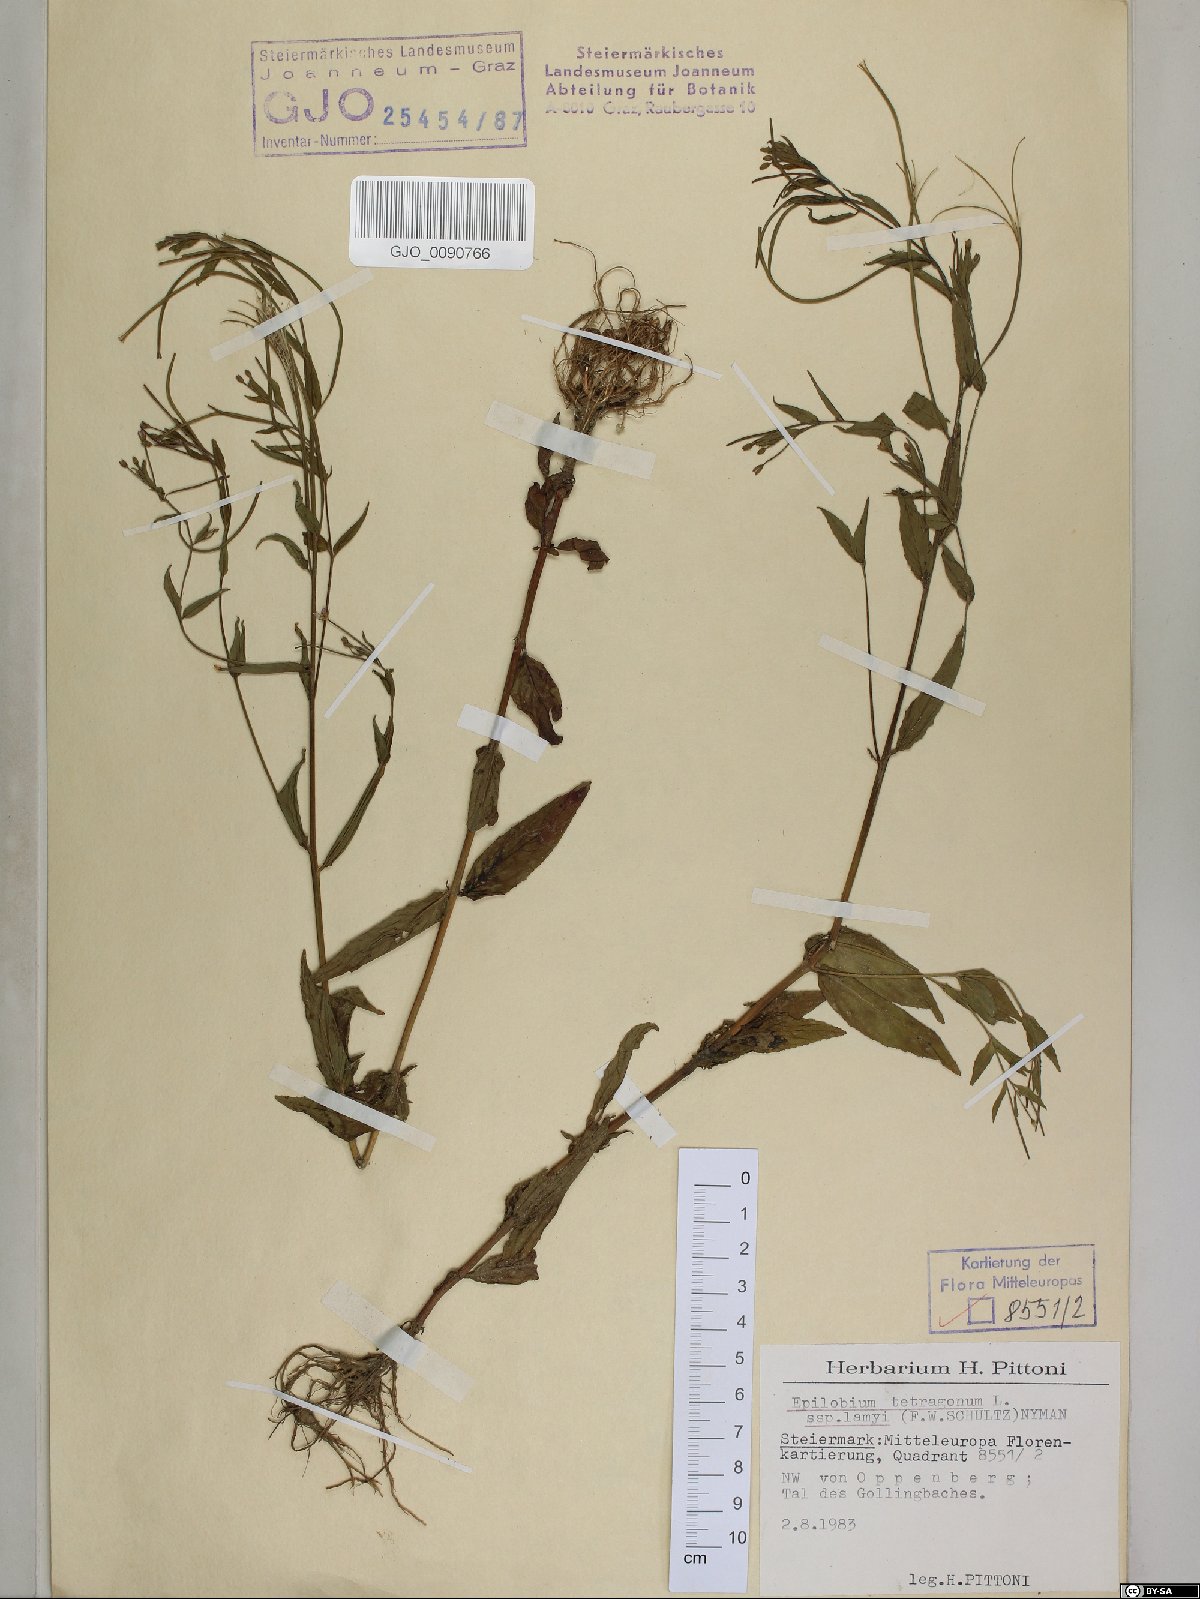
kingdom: Plantae
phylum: Tracheophyta
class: Magnoliopsida
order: Myrtales
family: Onagraceae
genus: Epilobium
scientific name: Epilobium ciliatum
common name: American willowherb
